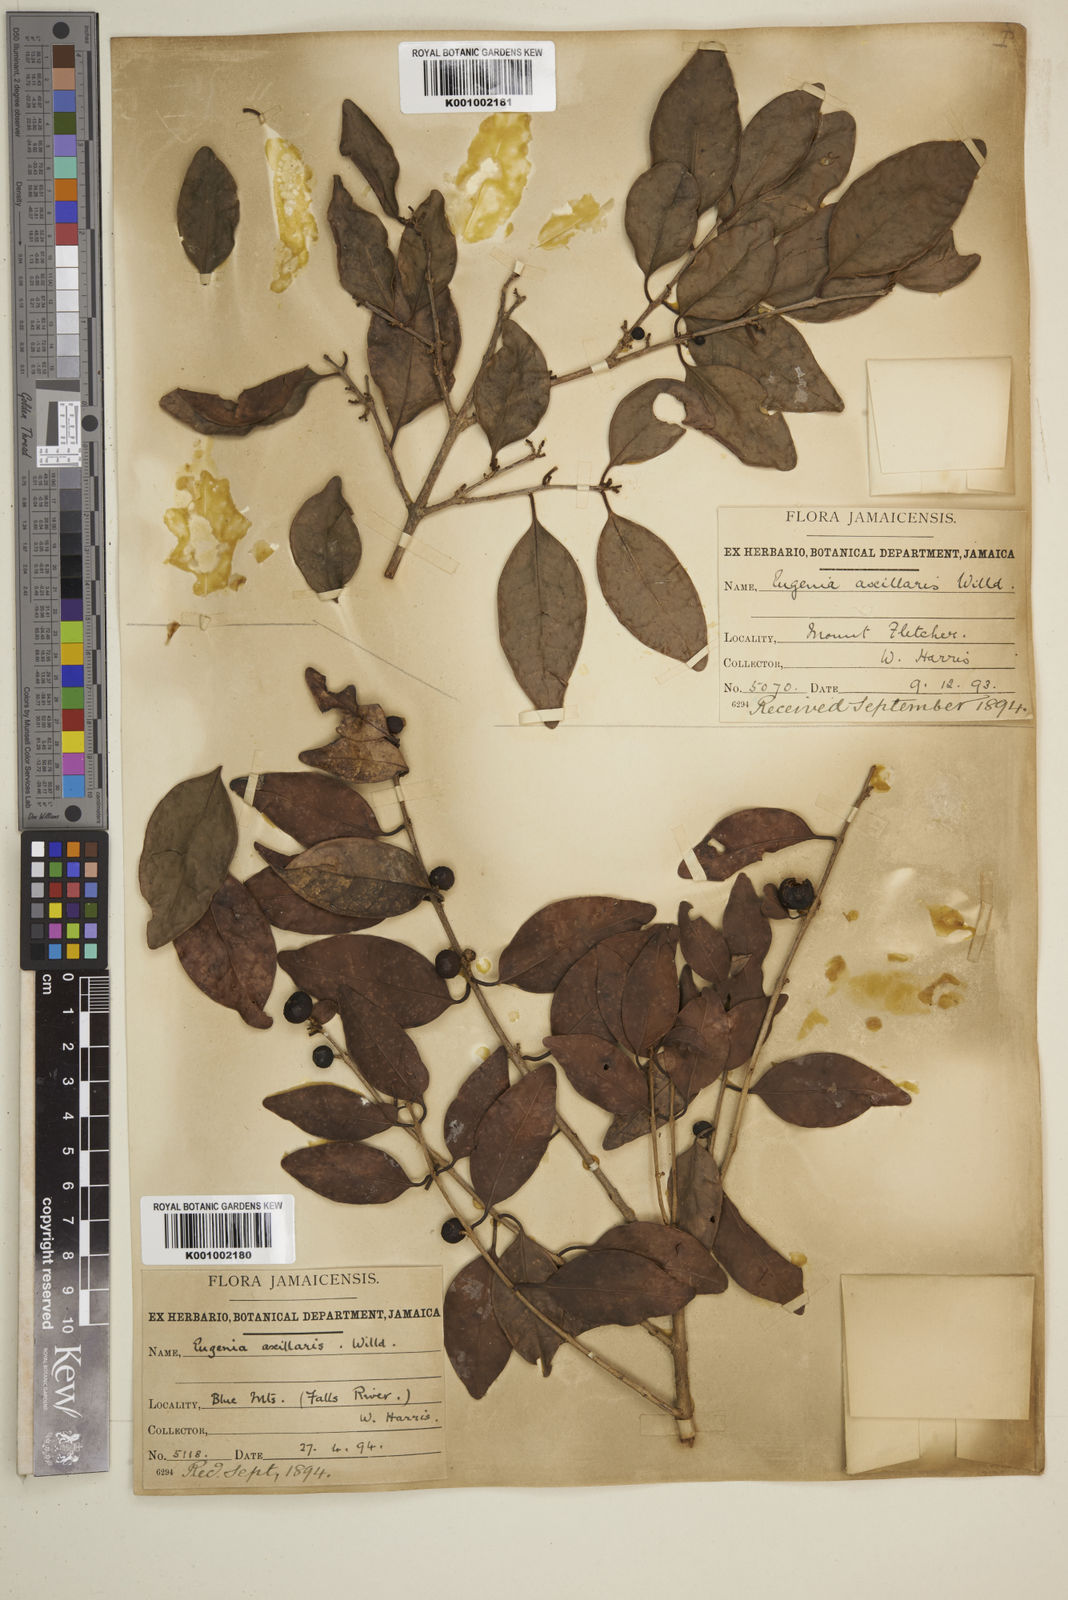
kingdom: Plantae
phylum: Tracheophyta
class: Magnoliopsida
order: Myrtales
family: Myrtaceae
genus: Eugenia
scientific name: Eugenia axillaris
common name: Choaky berry
